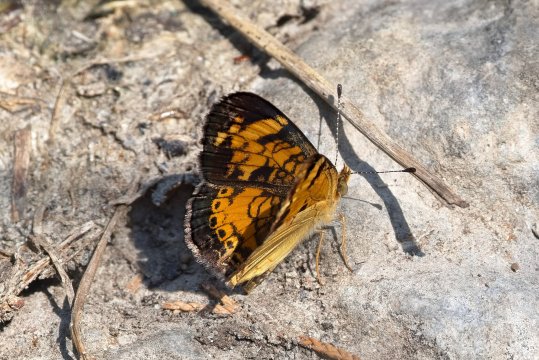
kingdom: Animalia
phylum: Arthropoda
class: Insecta
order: Lepidoptera
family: Nymphalidae
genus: Phyciodes
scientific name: Phyciodes tharos
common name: Pearl Crescent
